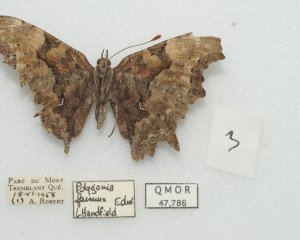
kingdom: Animalia
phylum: Arthropoda
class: Insecta
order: Lepidoptera
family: Nymphalidae
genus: Polygonia
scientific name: Polygonia faunus
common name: Green Comma
